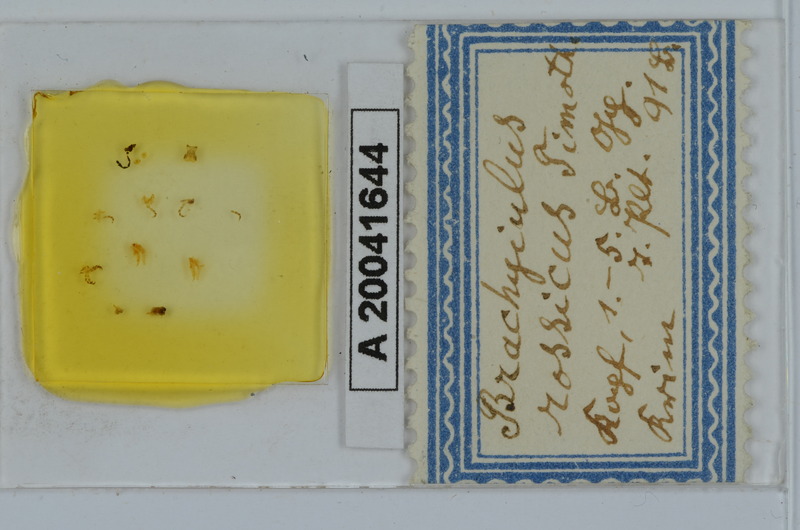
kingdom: Animalia
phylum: Arthropoda
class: Diplopoda
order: Julida
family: Julidae
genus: Byzantorhopalum
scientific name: Byzantorhopalum rossicum
